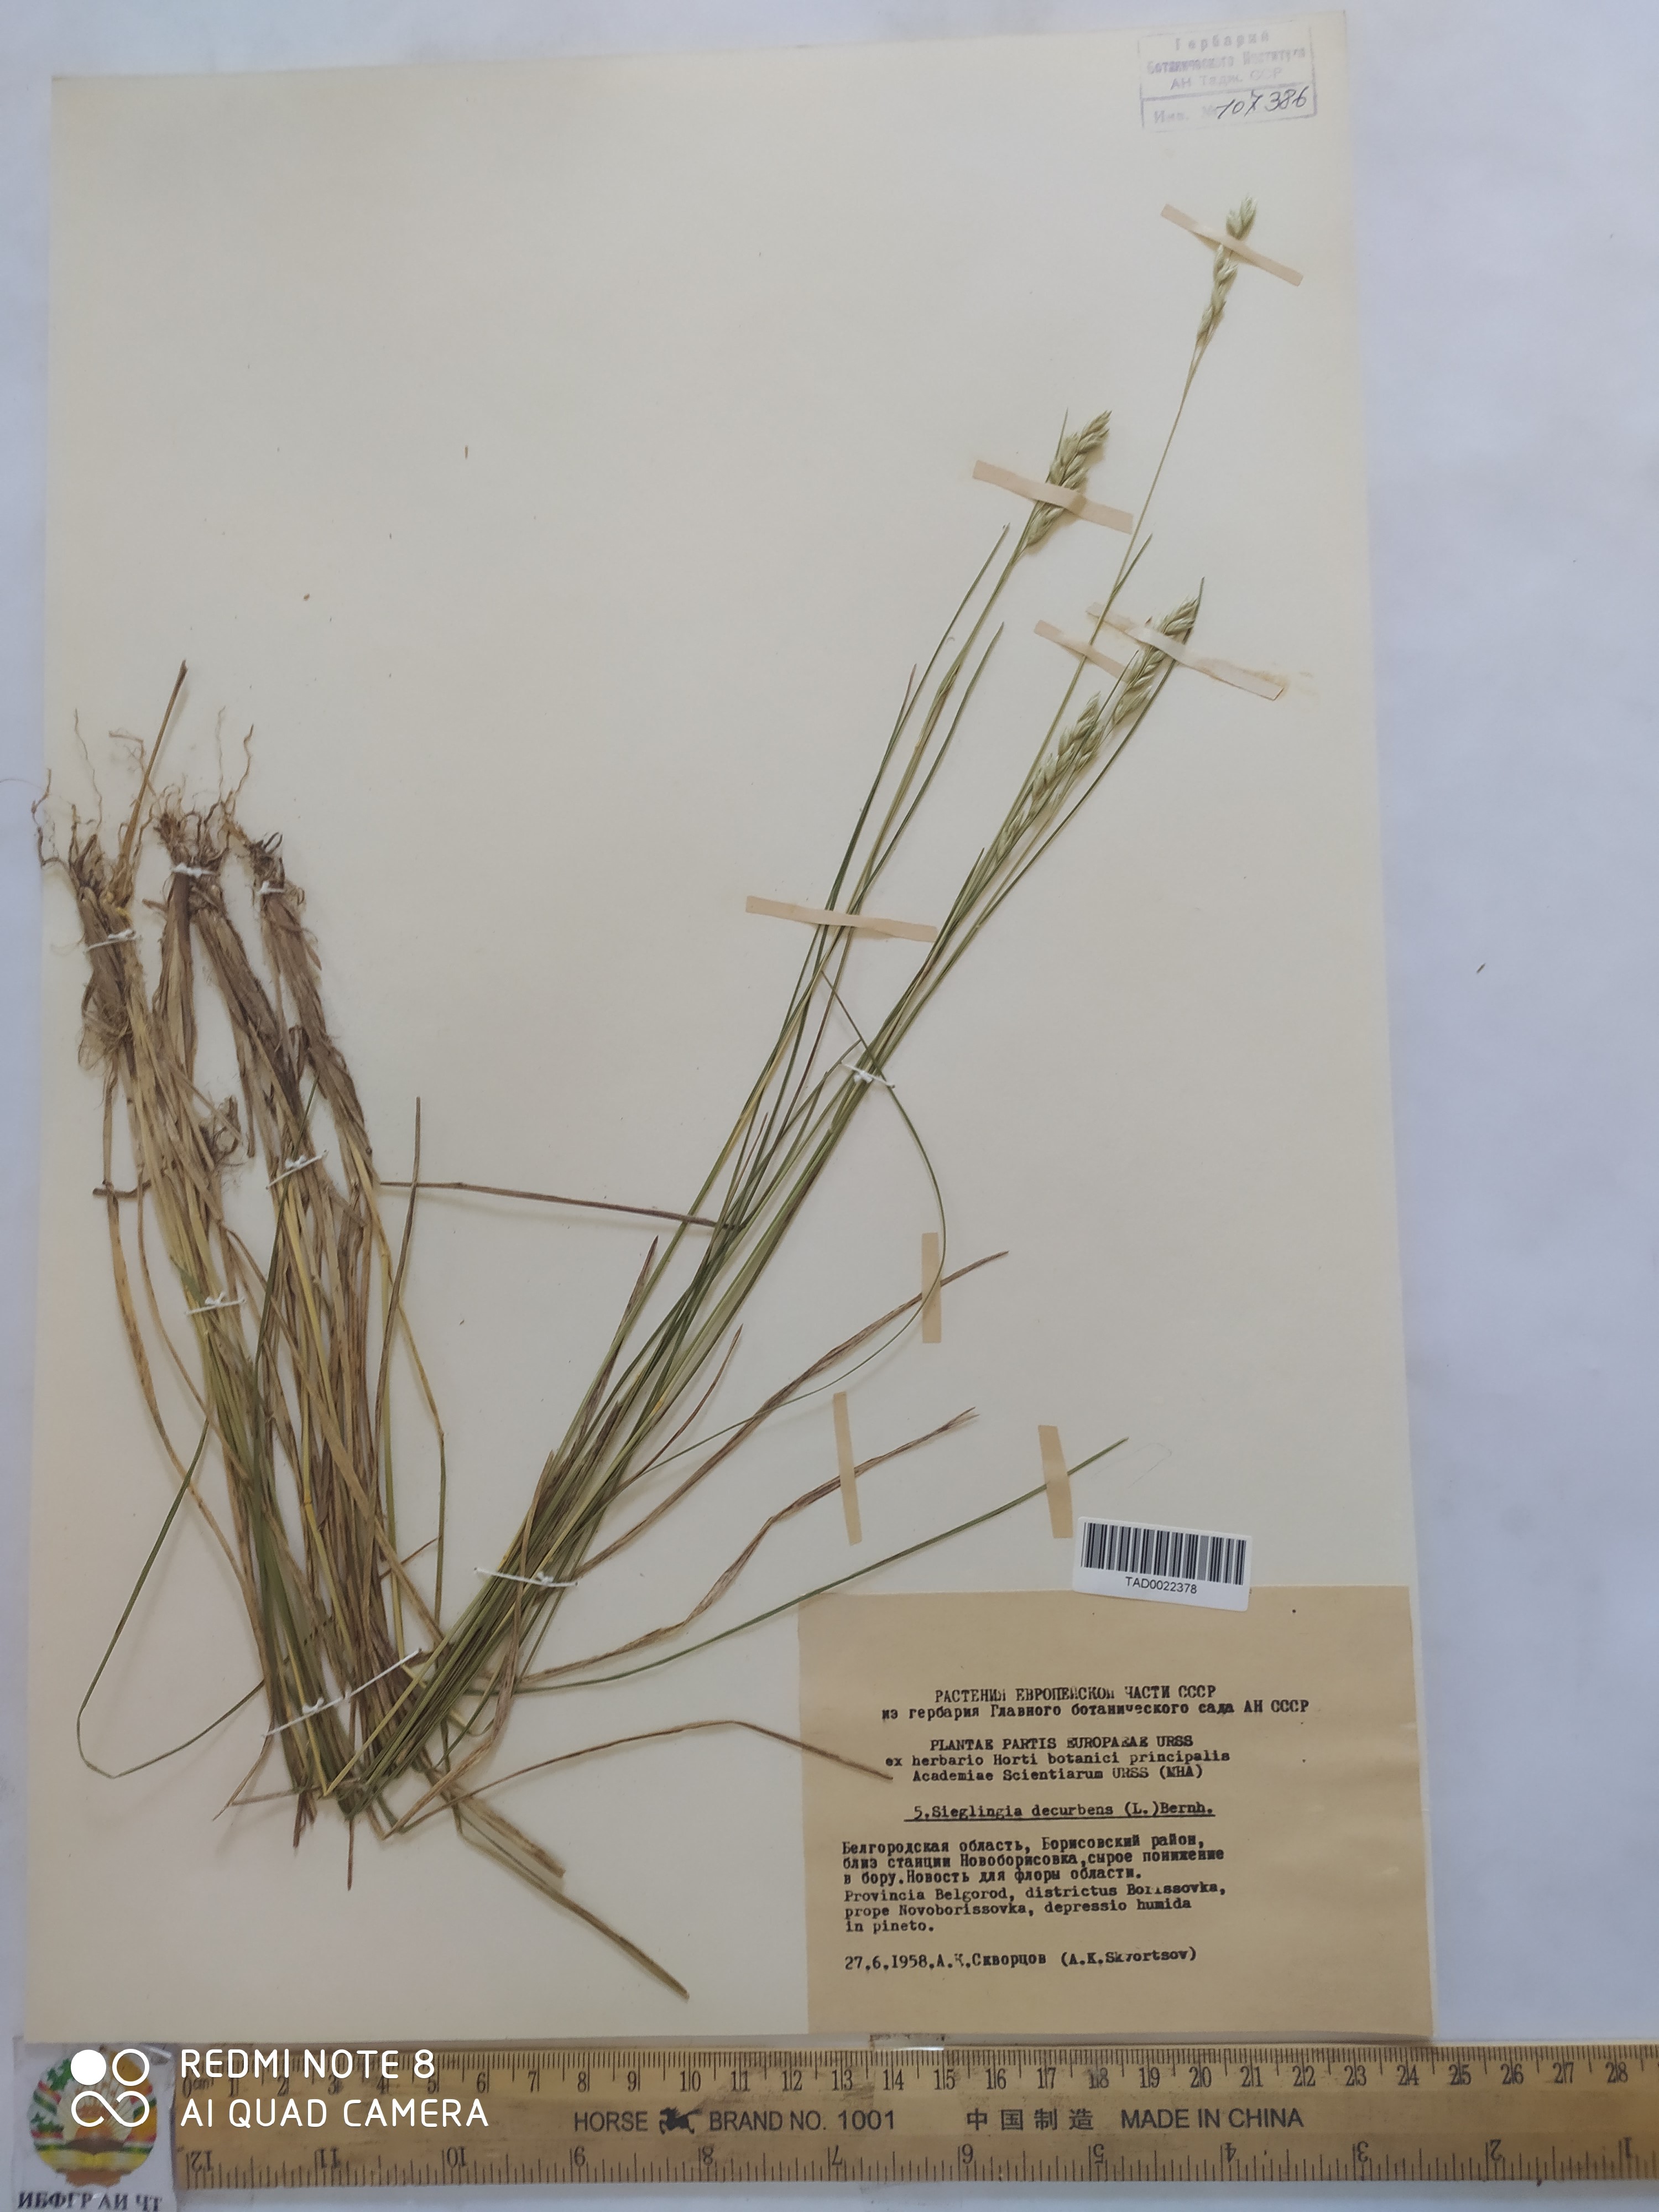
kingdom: Plantae
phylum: Tracheophyta
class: Liliopsida
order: Poales
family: Poaceae
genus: Danthonia
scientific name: Danthonia decumbens
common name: Common heathgrass
